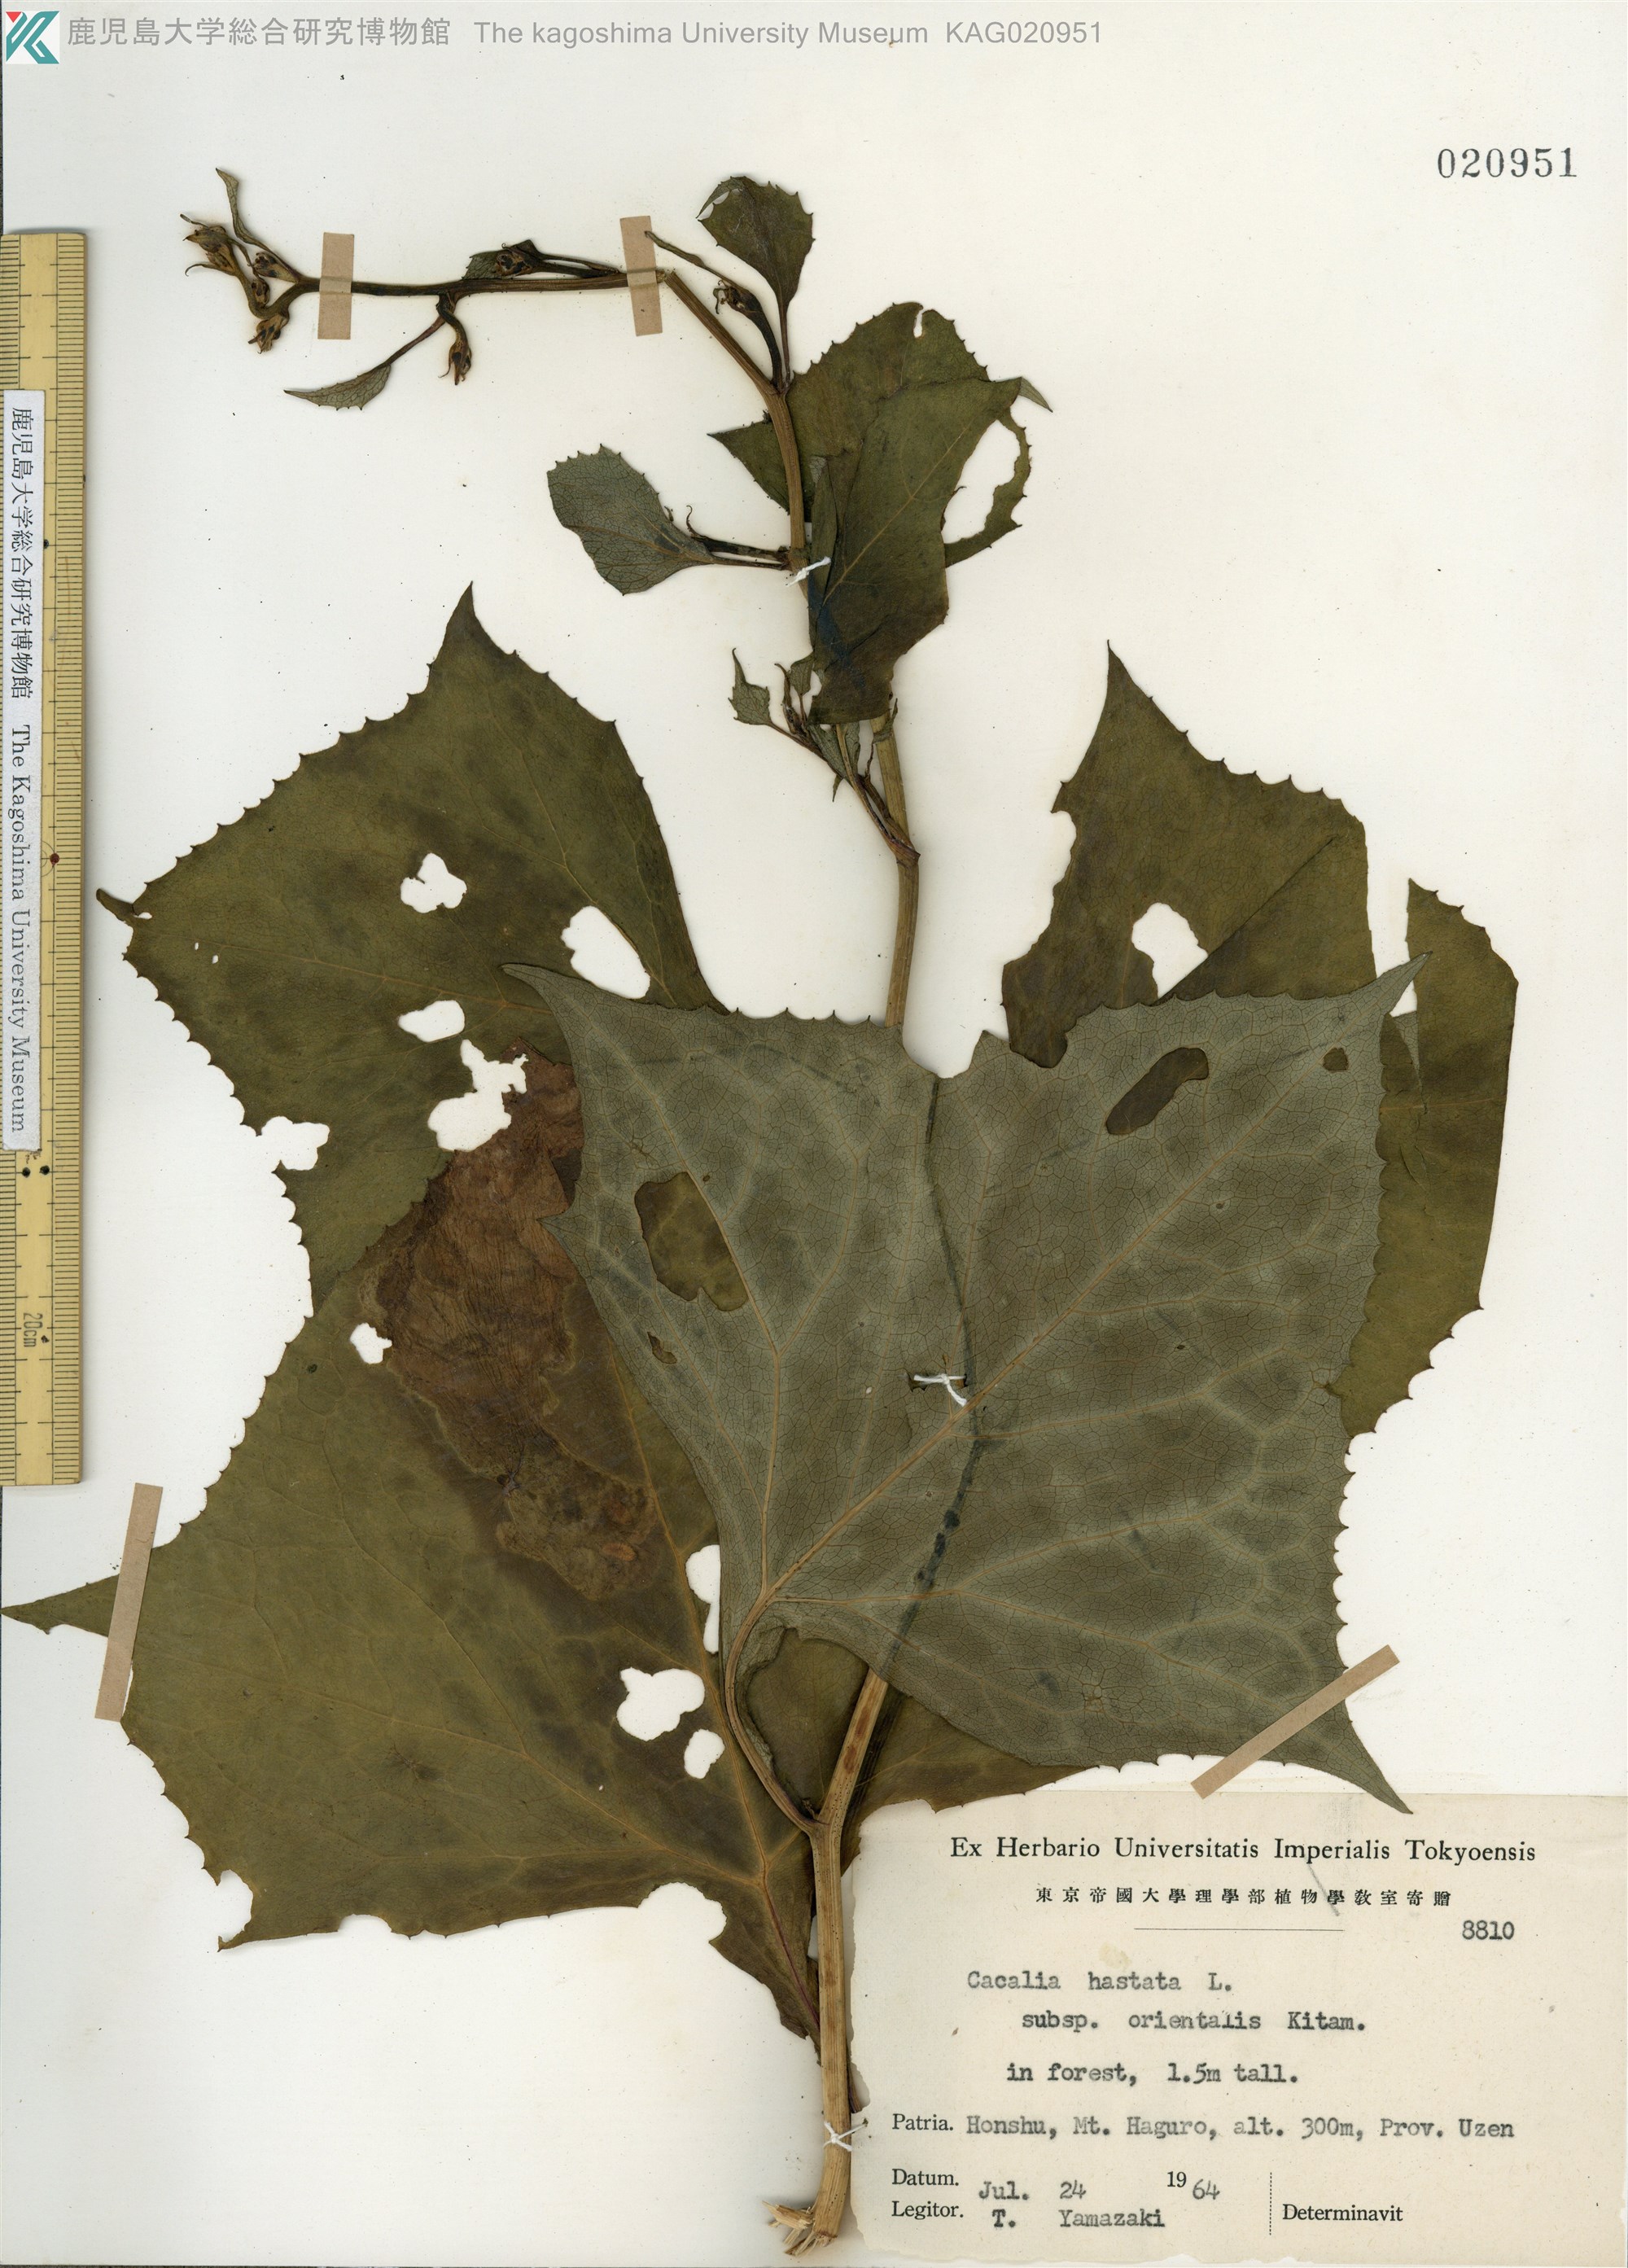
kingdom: Plantae
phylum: Tracheophyta
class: Magnoliopsida
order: Asterales
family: Asteraceae
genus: Parasenecio
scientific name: Parasenecio
